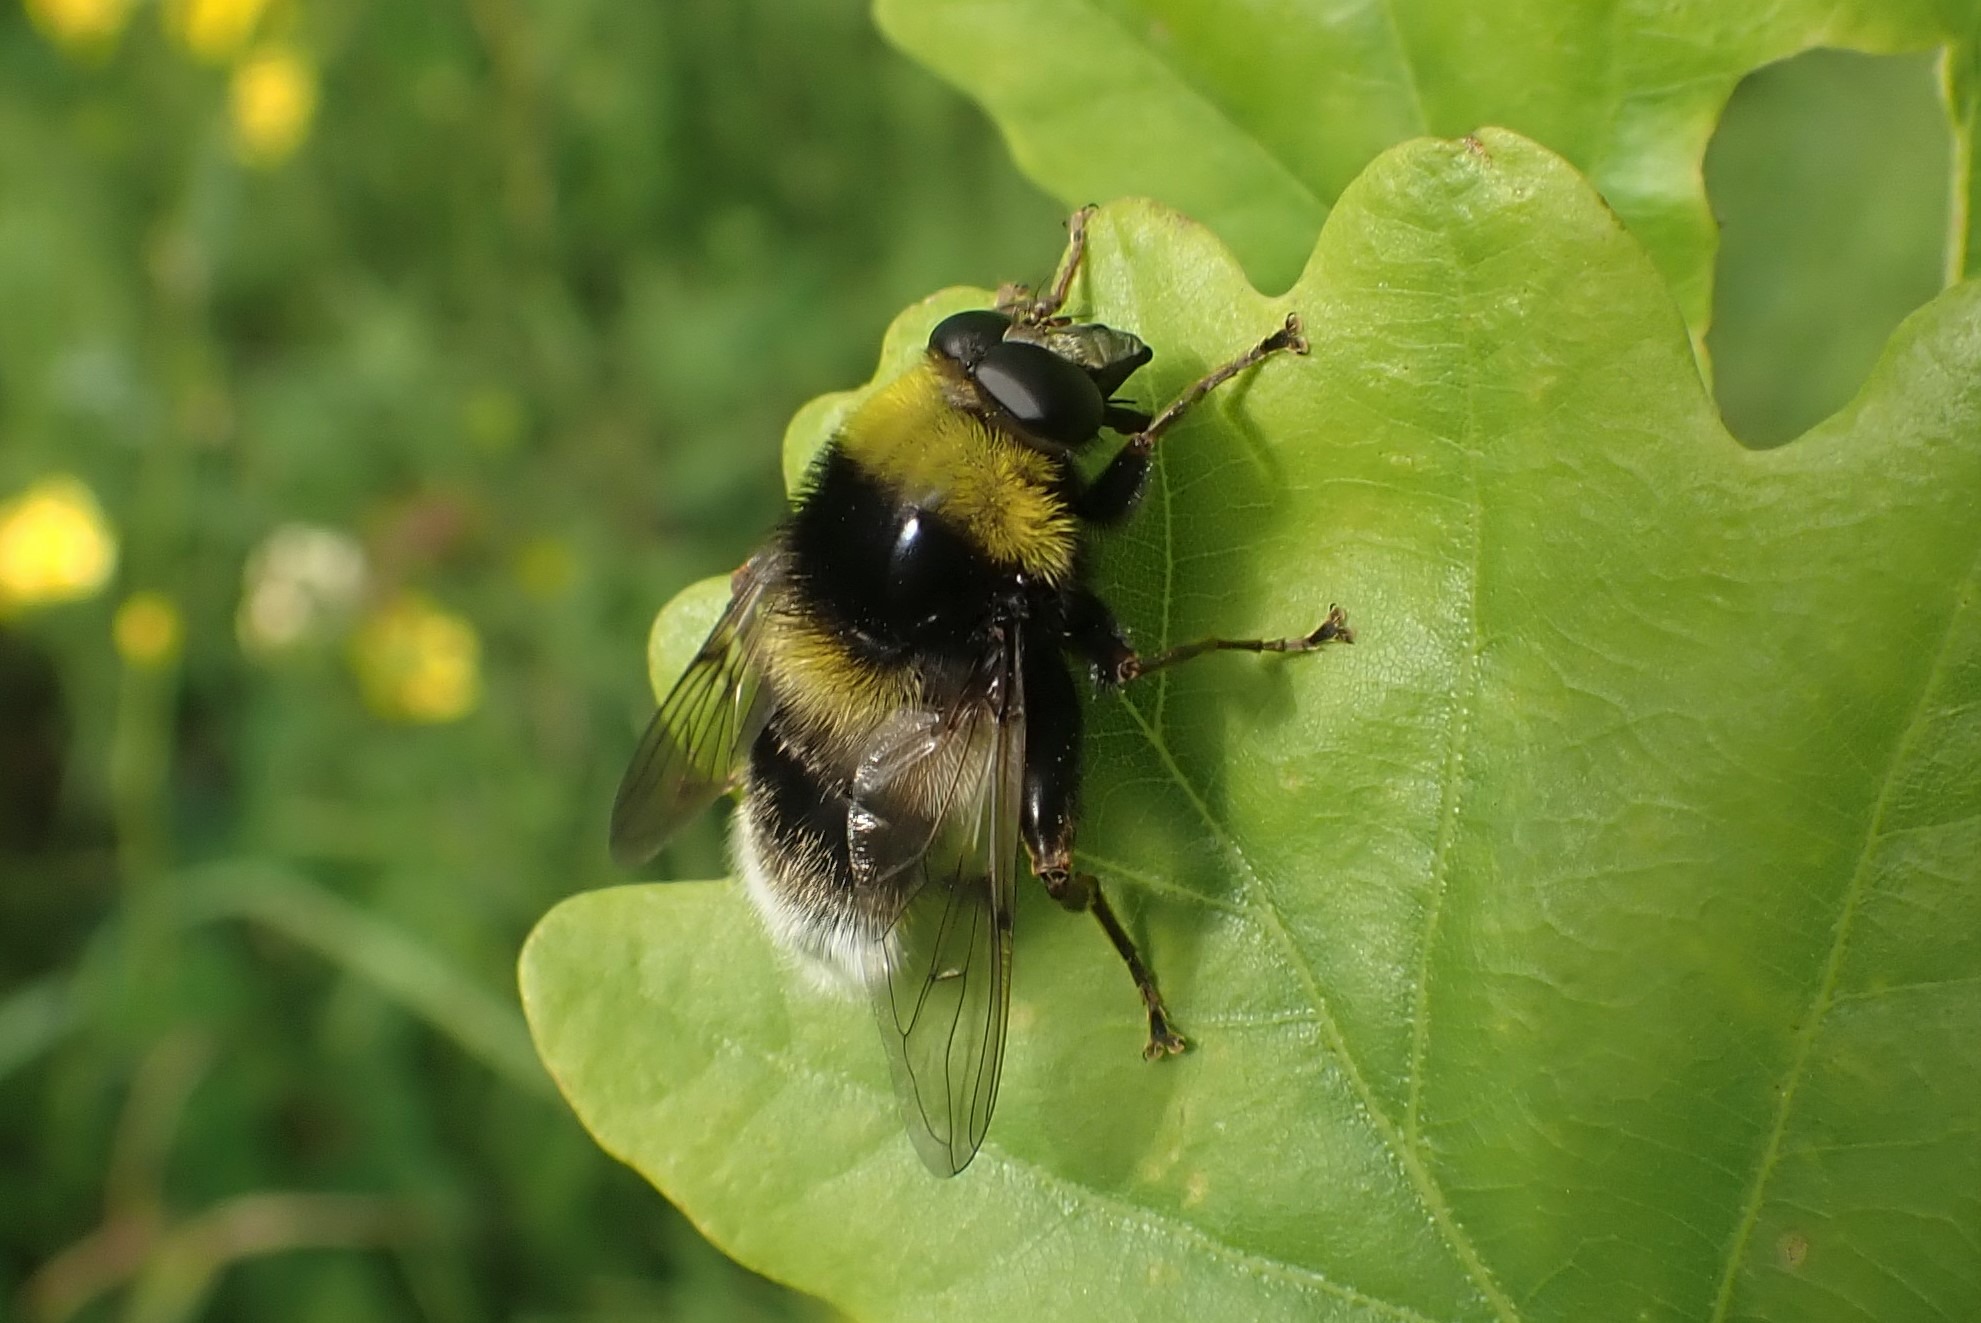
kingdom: Animalia
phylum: Arthropoda
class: Insecta
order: Diptera
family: Syrphidae
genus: Sericomyia
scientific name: Sericomyia bombiformis
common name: Gul bjørnesvirreflue
